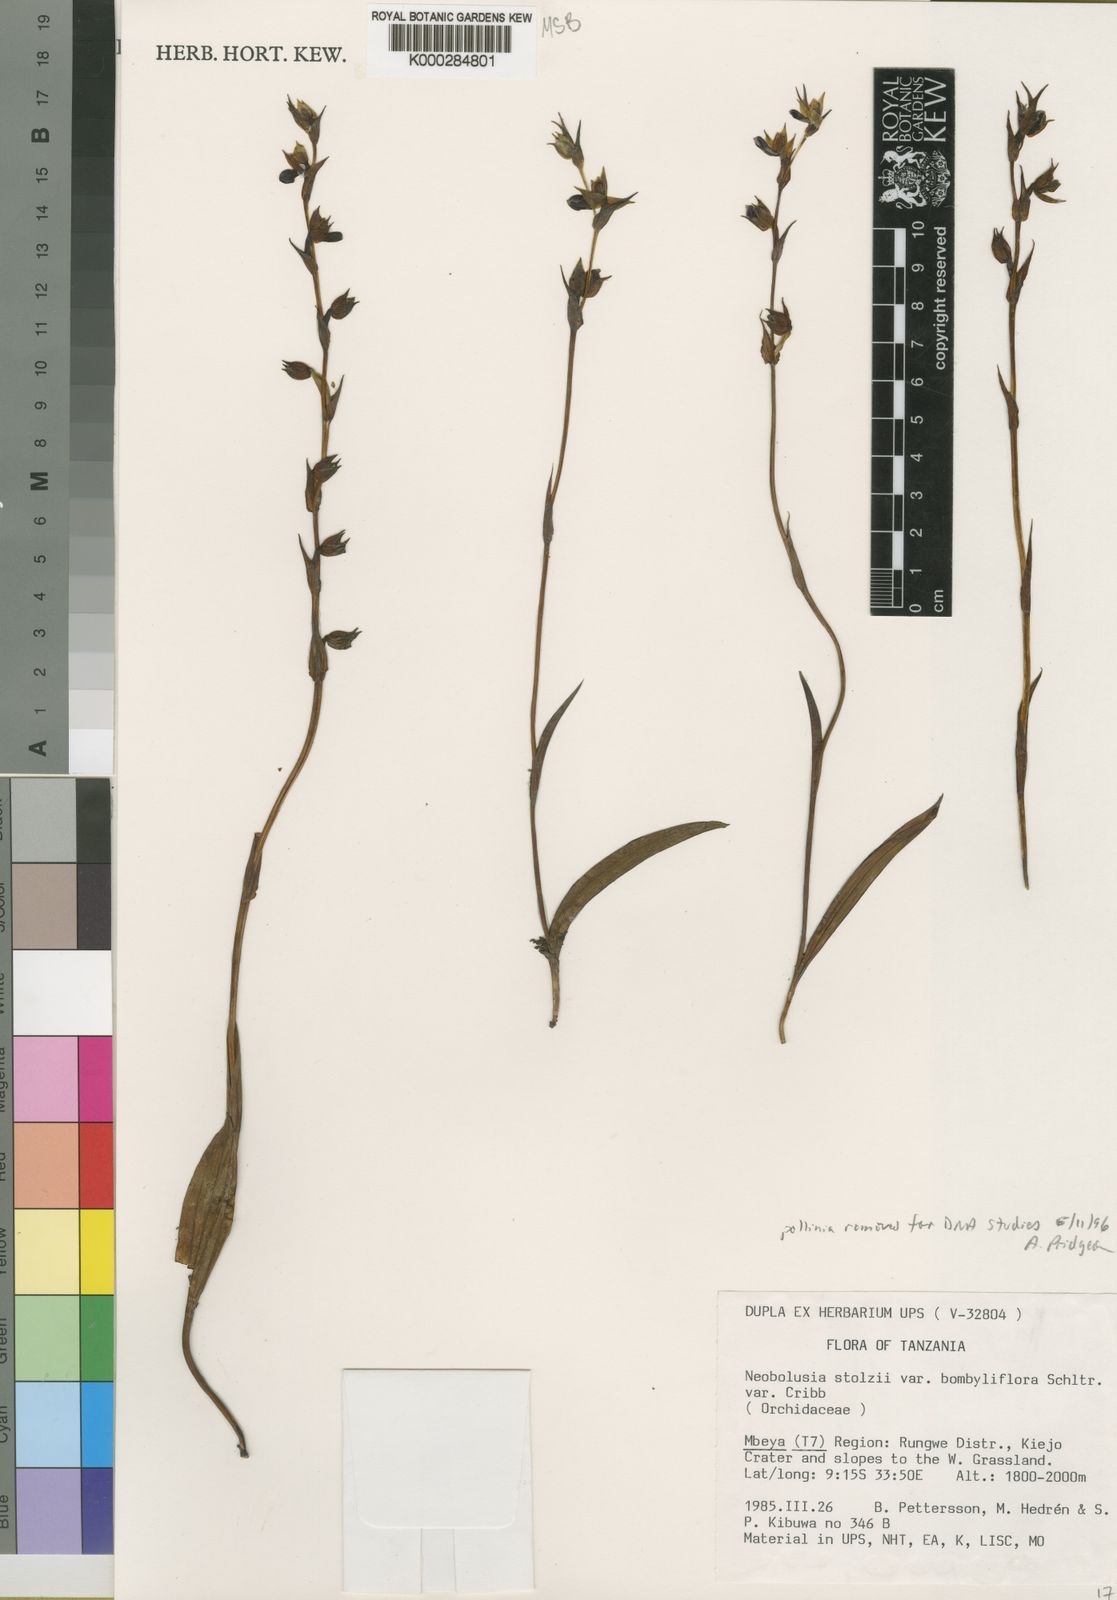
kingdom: Plantae
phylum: Tracheophyta
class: Liliopsida
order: Asparagales
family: Orchidaceae
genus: Neobolusia
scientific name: Neobolusia stolzii
